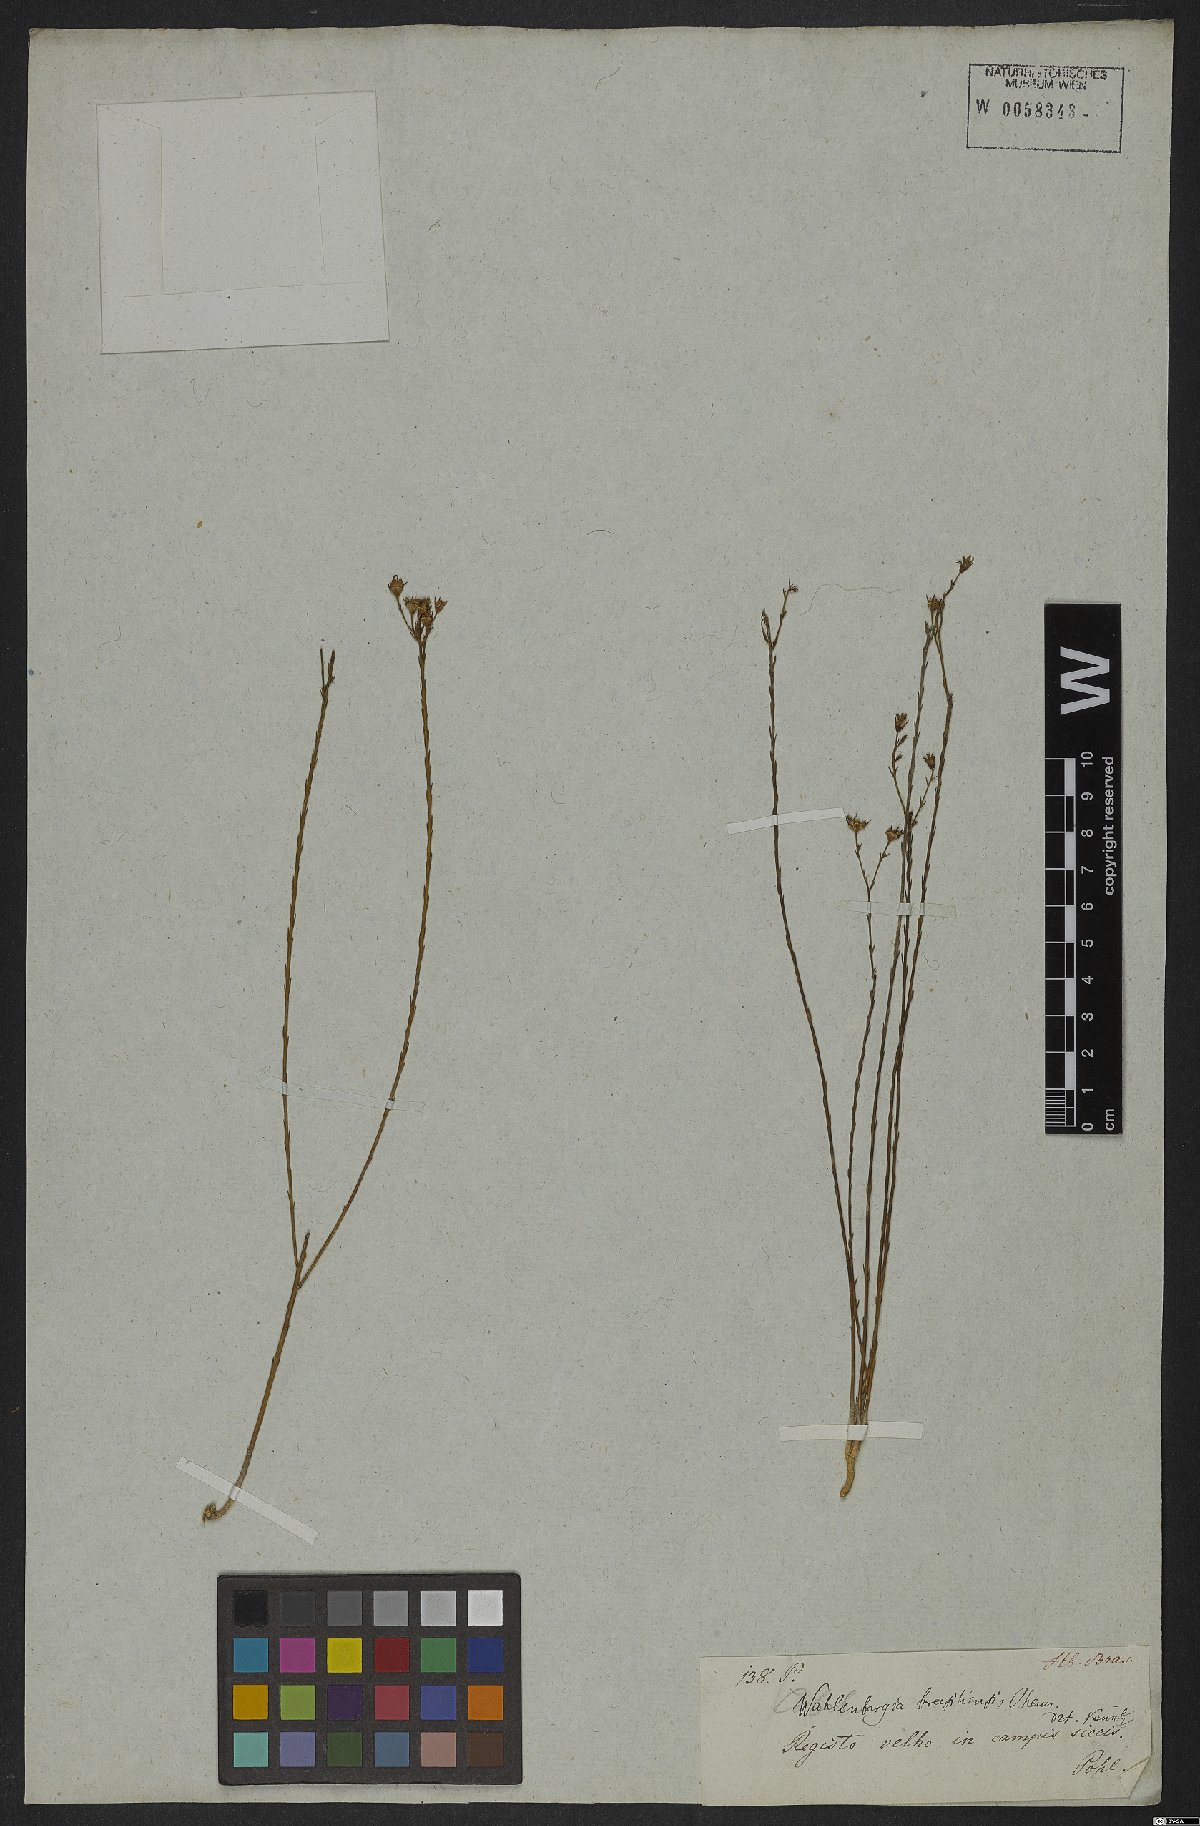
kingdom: Plantae
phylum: Tracheophyta
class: Magnoliopsida
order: Asterales
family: Campanulaceae
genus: Wahlenbergia
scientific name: Wahlenbergia brasiliensis
